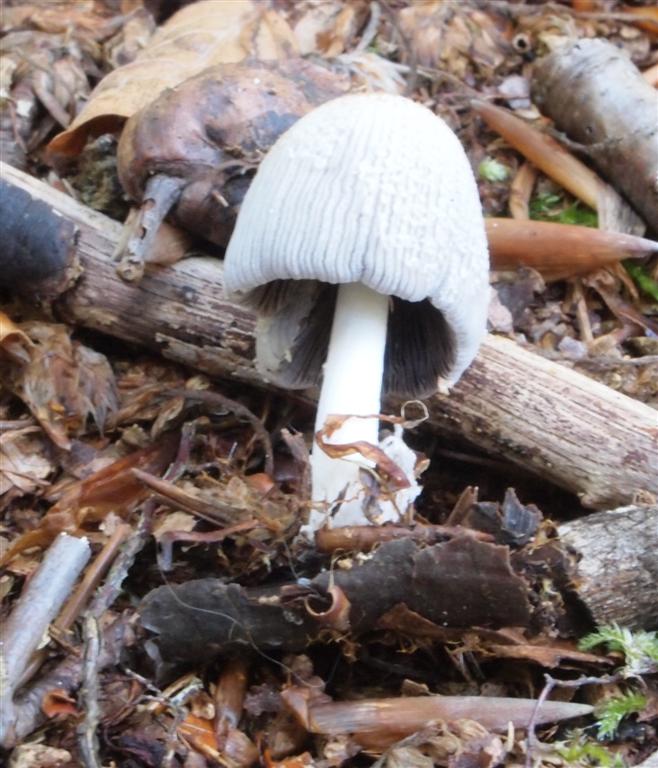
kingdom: Fungi
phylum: Basidiomycota
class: Agaricomycetes
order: Agaricales
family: Psathyrellaceae
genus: Coprinellus
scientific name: Coprinellus domesticus
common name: hus-blækhat
